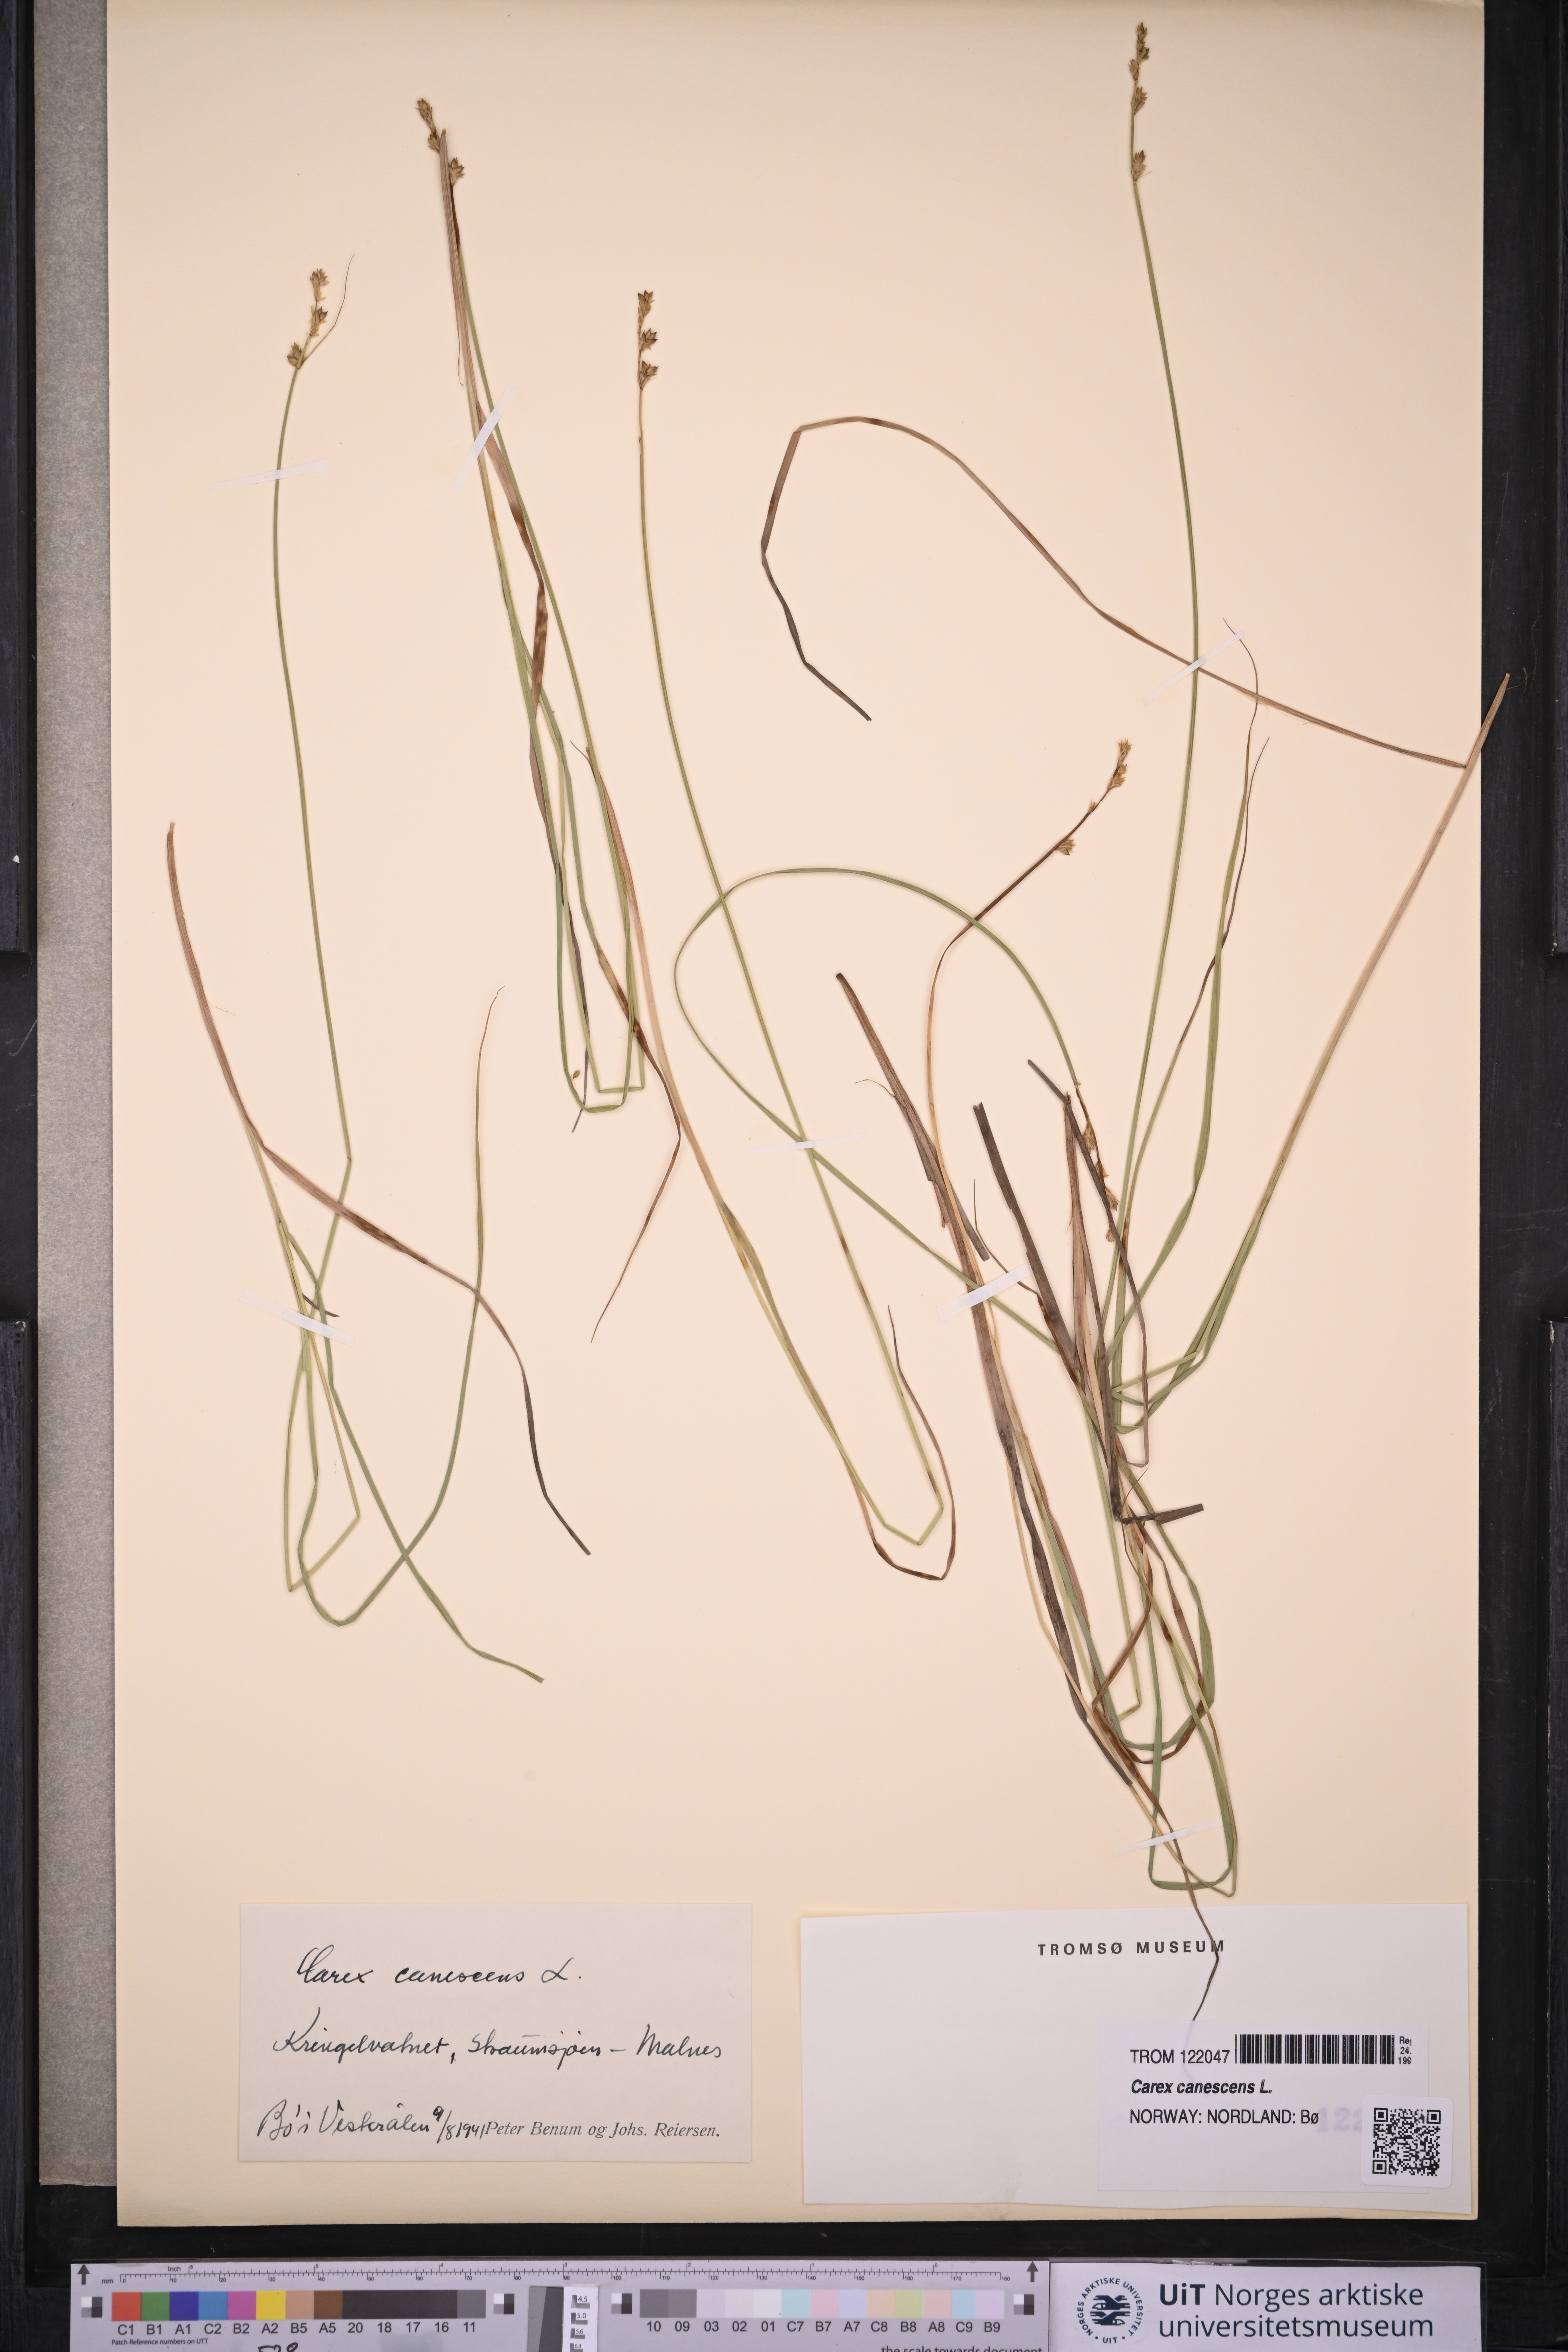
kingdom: Plantae
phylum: Tracheophyta
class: Liliopsida
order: Poales
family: Cyperaceae
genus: Carex
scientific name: Carex canescens
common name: White sedge
